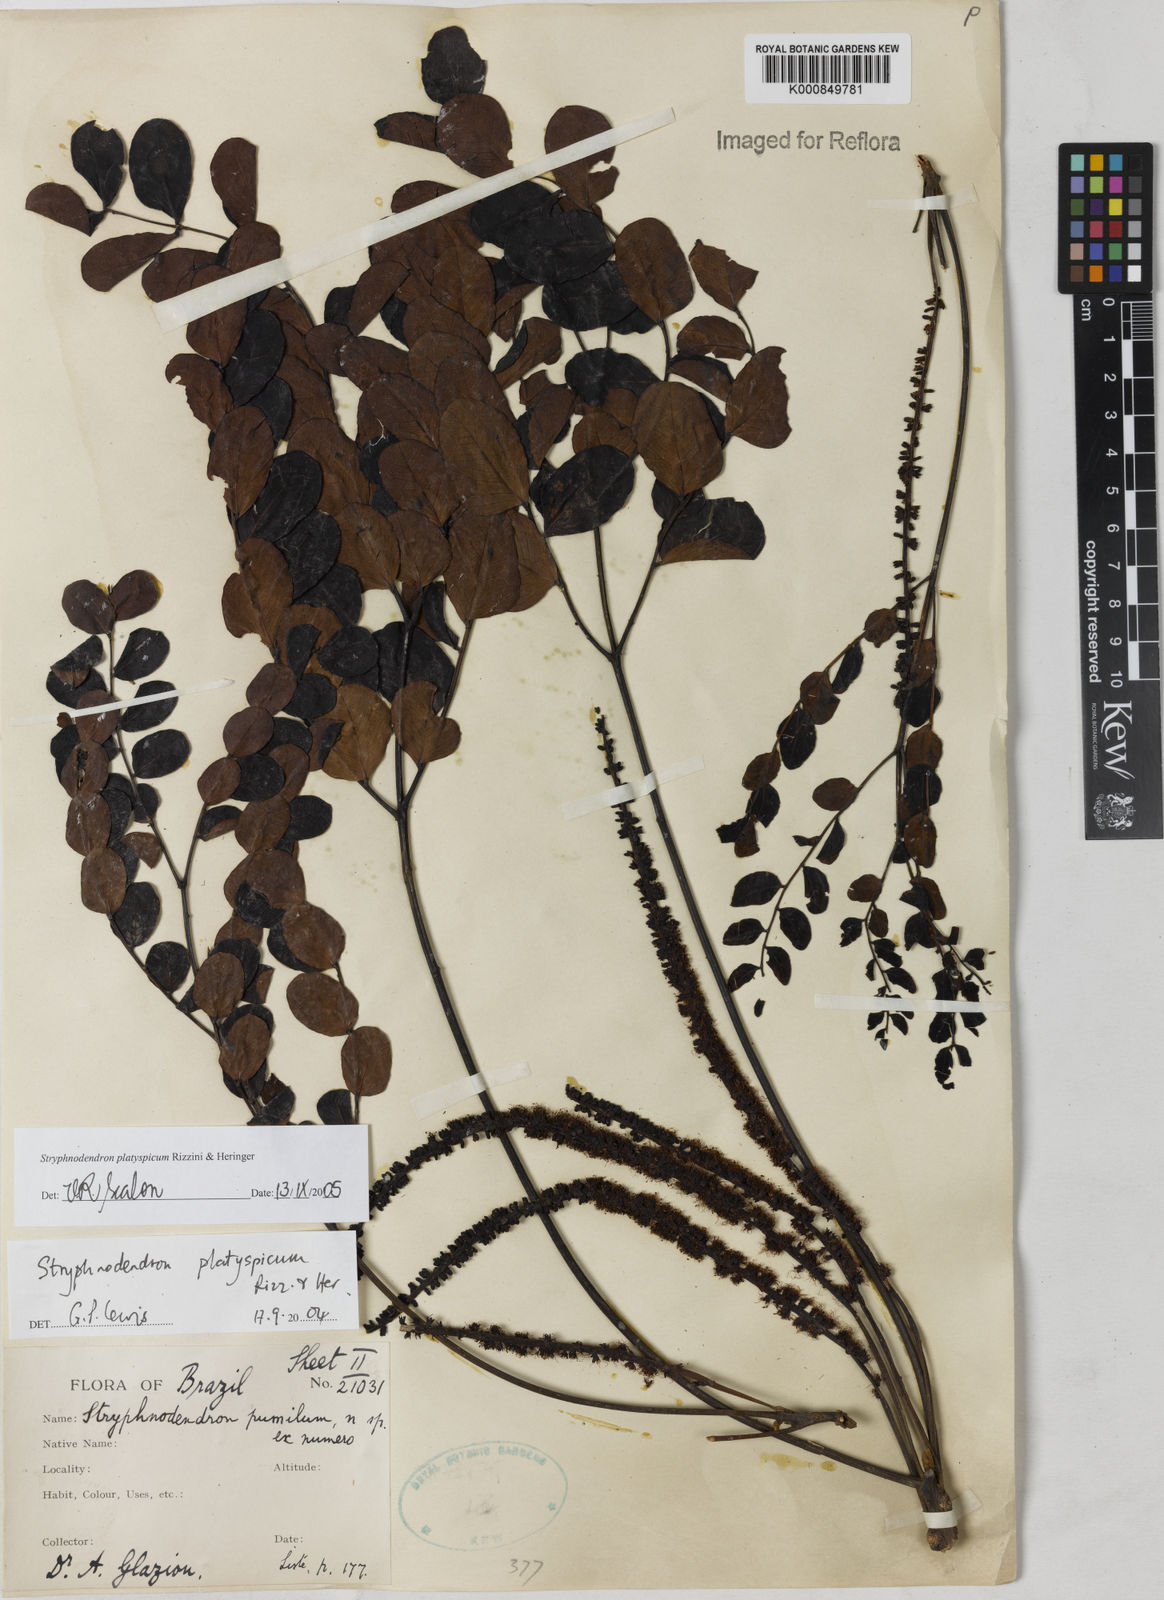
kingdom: Plantae
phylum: Tracheophyta
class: Magnoliopsida
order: Fabales
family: Fabaceae
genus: Stryphnodendron
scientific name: Stryphnodendron
